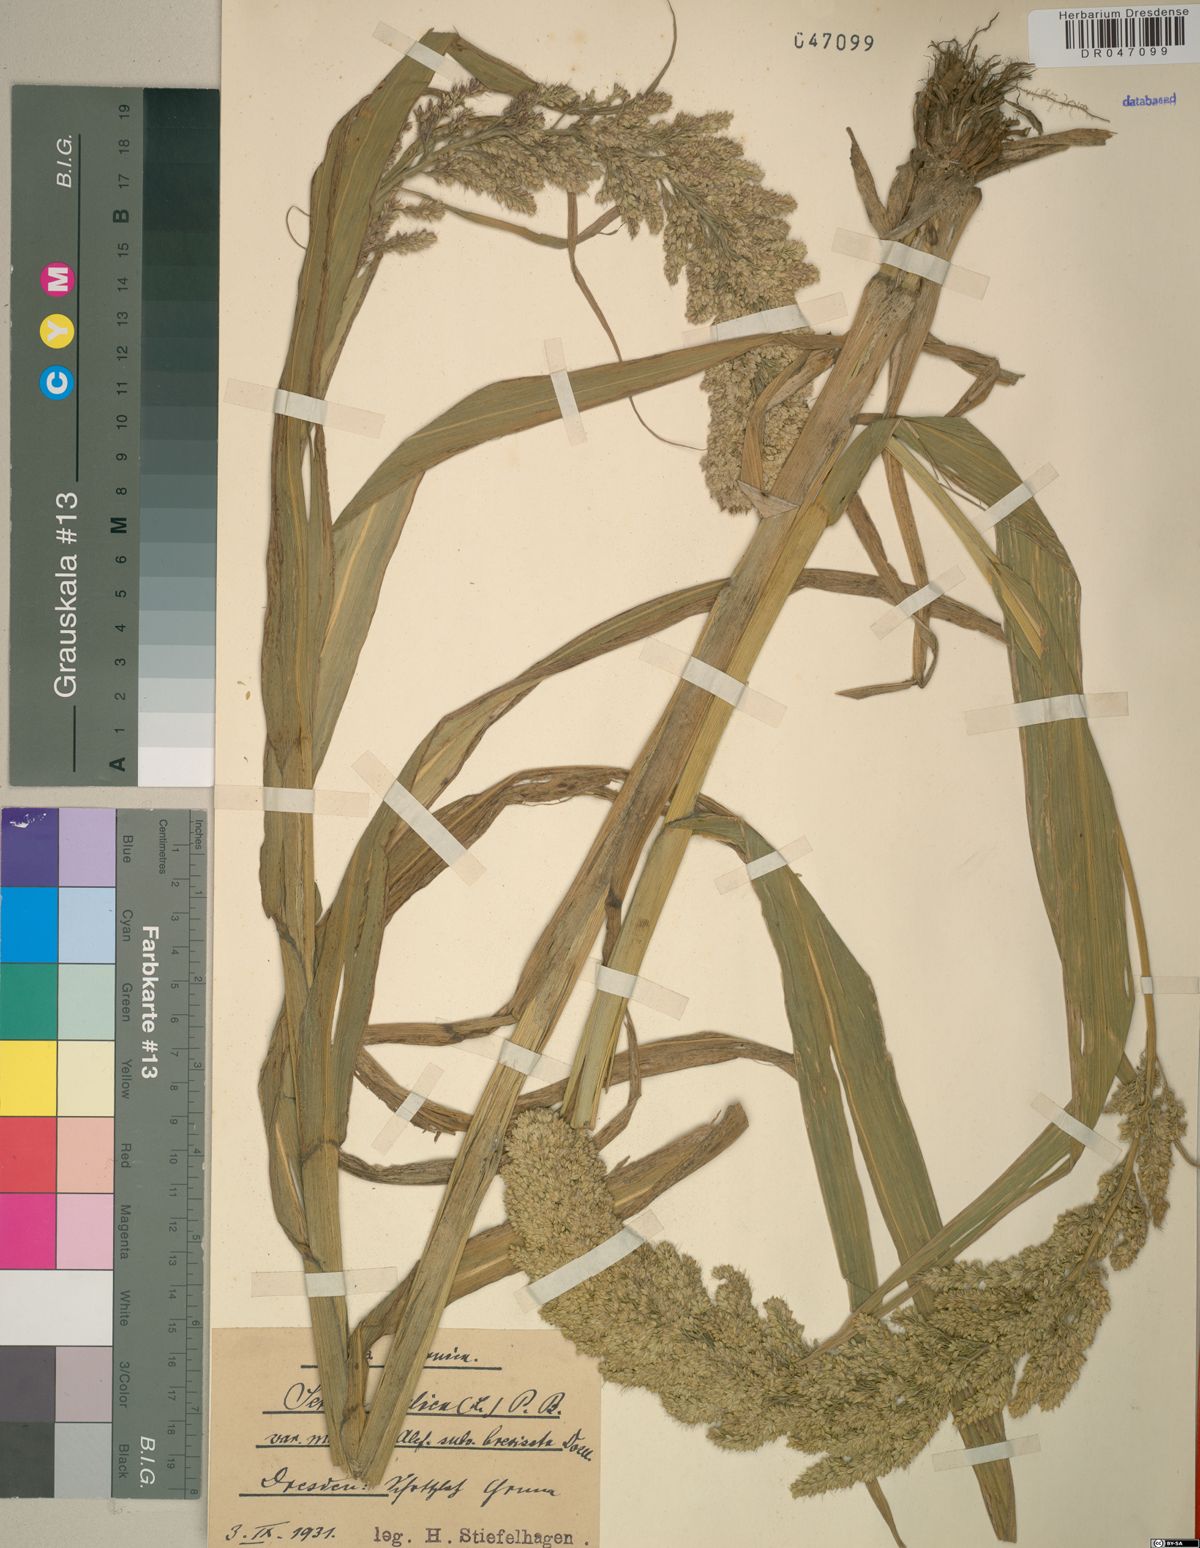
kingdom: Plantae
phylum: Tracheophyta
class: Liliopsida
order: Poales
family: Poaceae
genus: Setaria
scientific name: Setaria italica
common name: Foxtail bristle-grass
